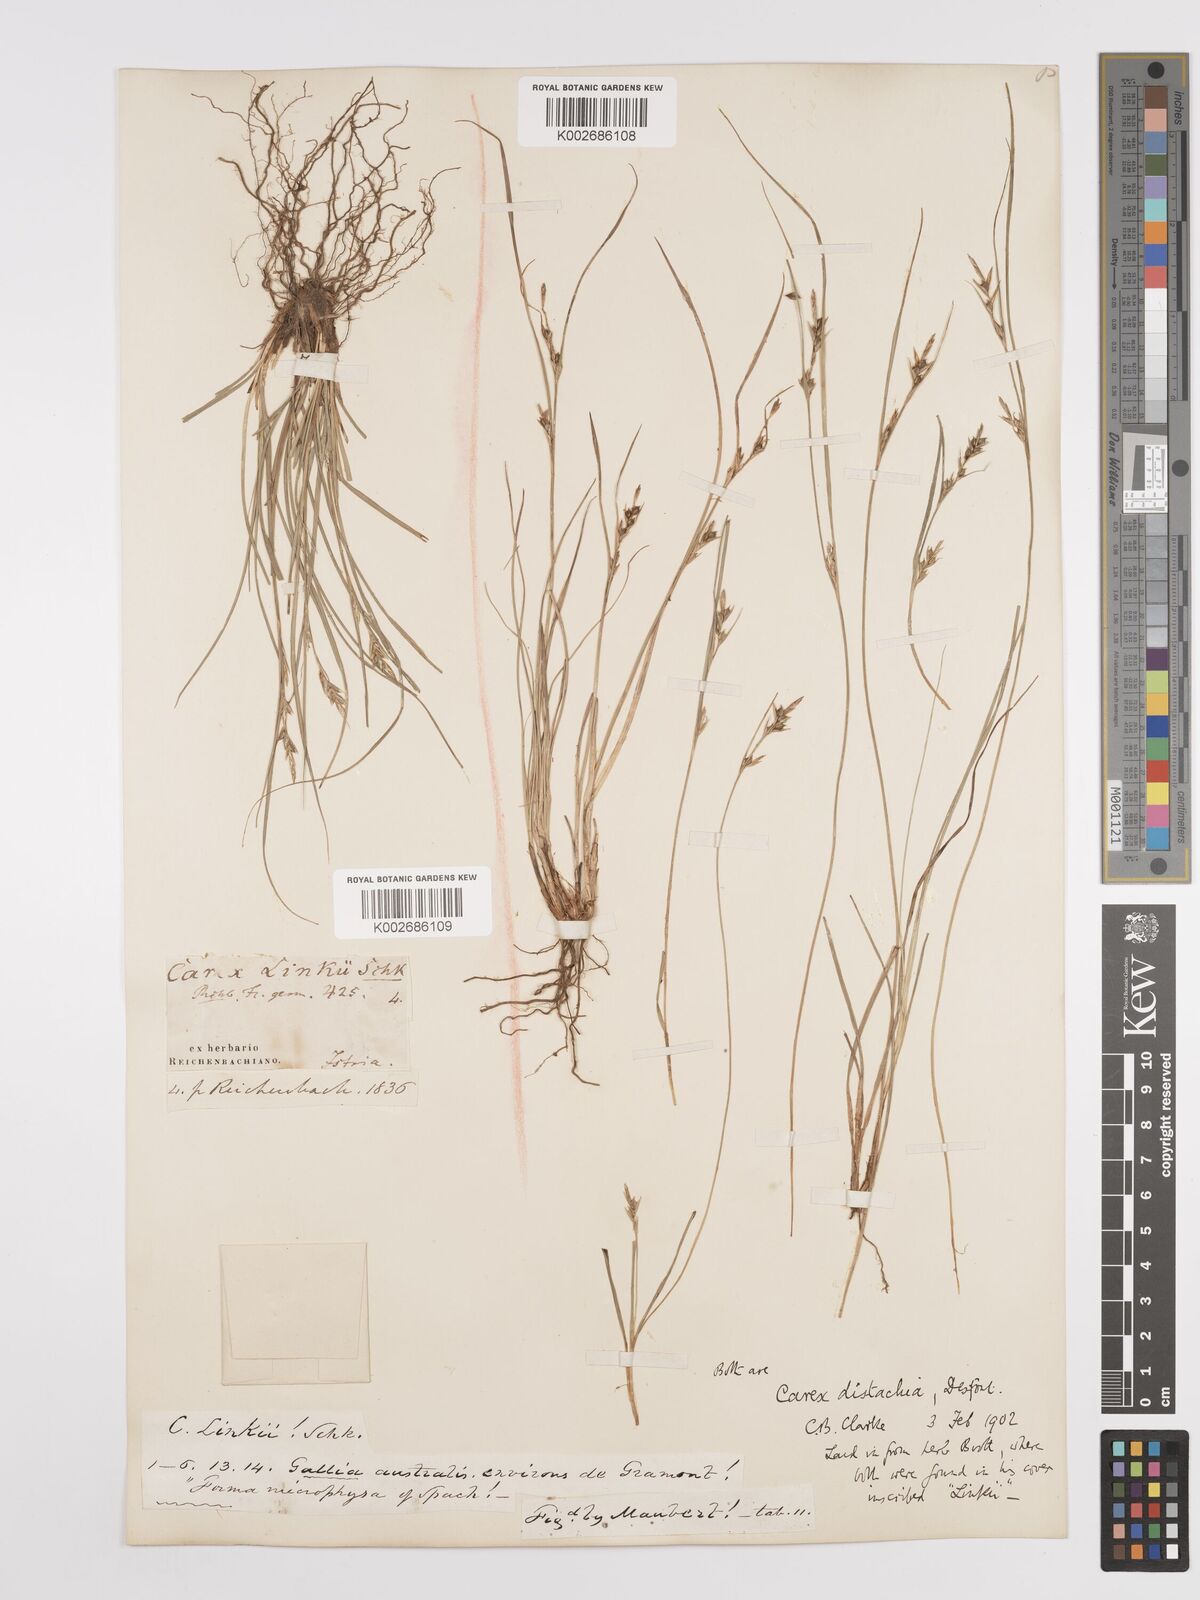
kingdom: Plantae
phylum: Tracheophyta
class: Liliopsida
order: Poales
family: Cyperaceae
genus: Carex
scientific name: Carex distachya
